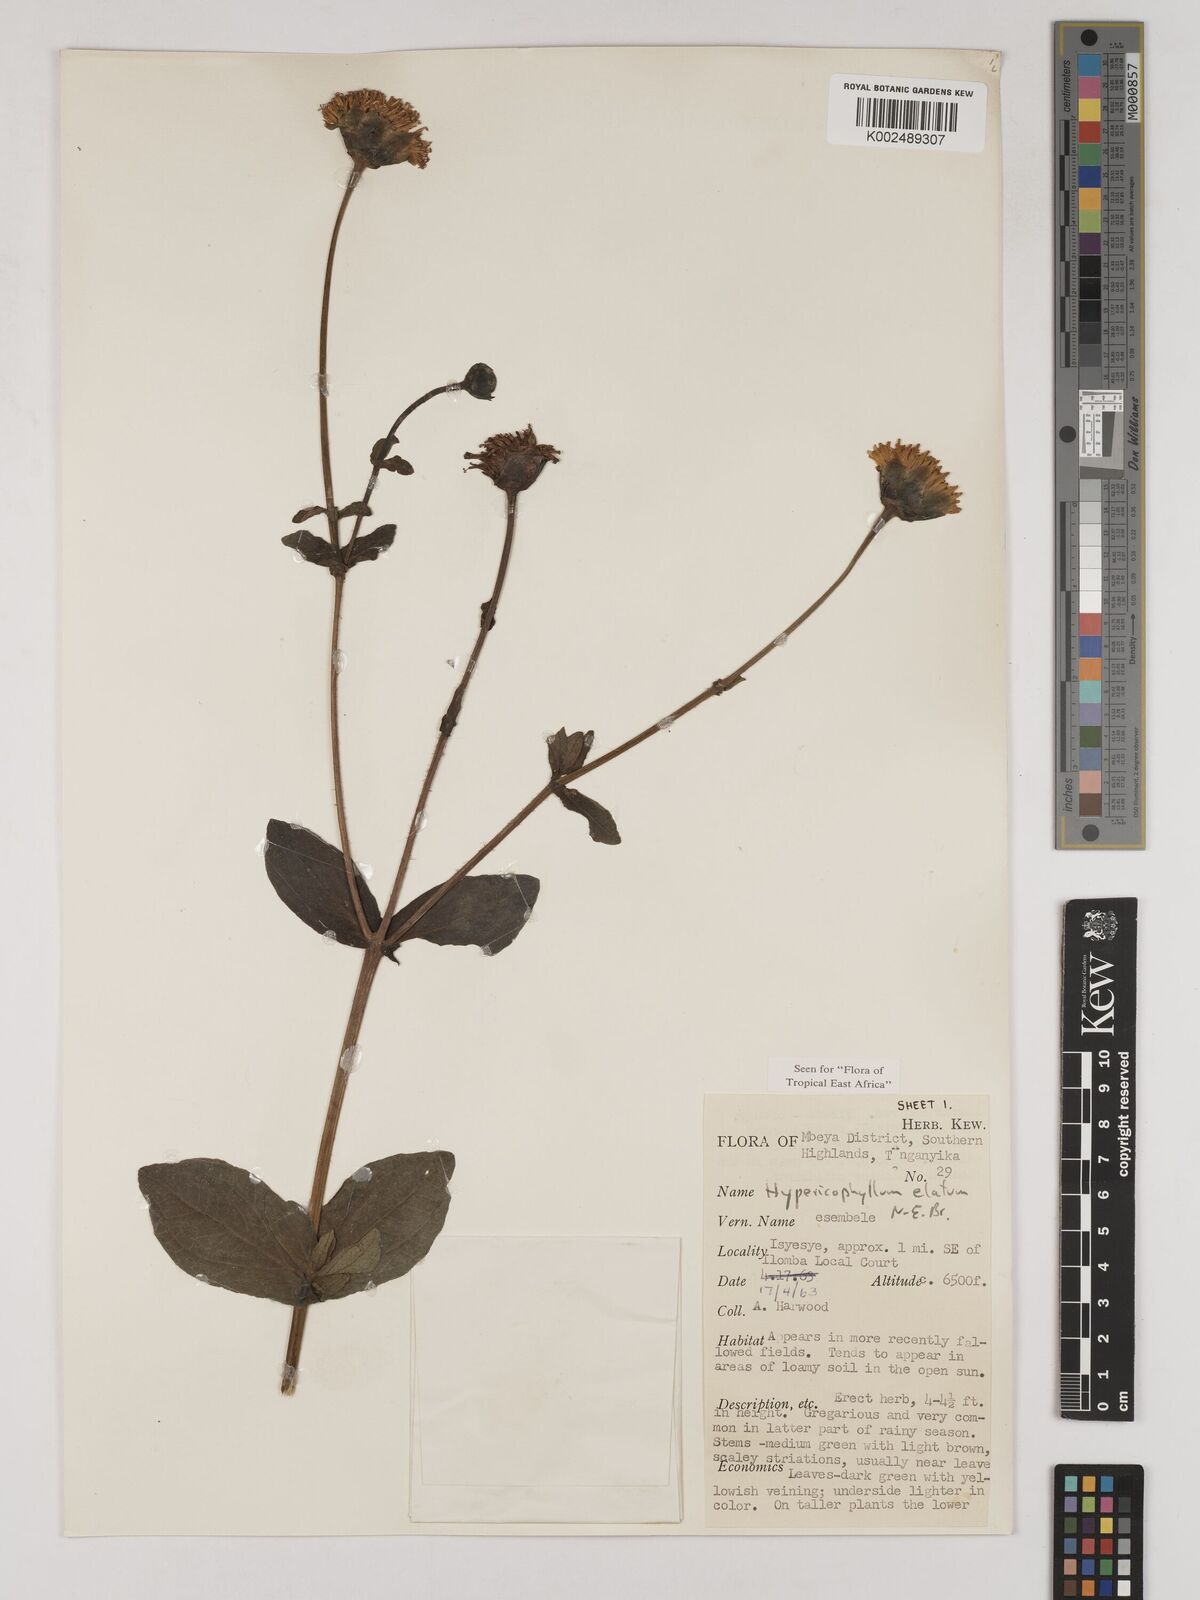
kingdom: Plantae
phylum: Tracheophyta
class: Magnoliopsida
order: Asterales
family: Asteraceae
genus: Hypericophyllum
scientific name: Hypericophyllum elatum
